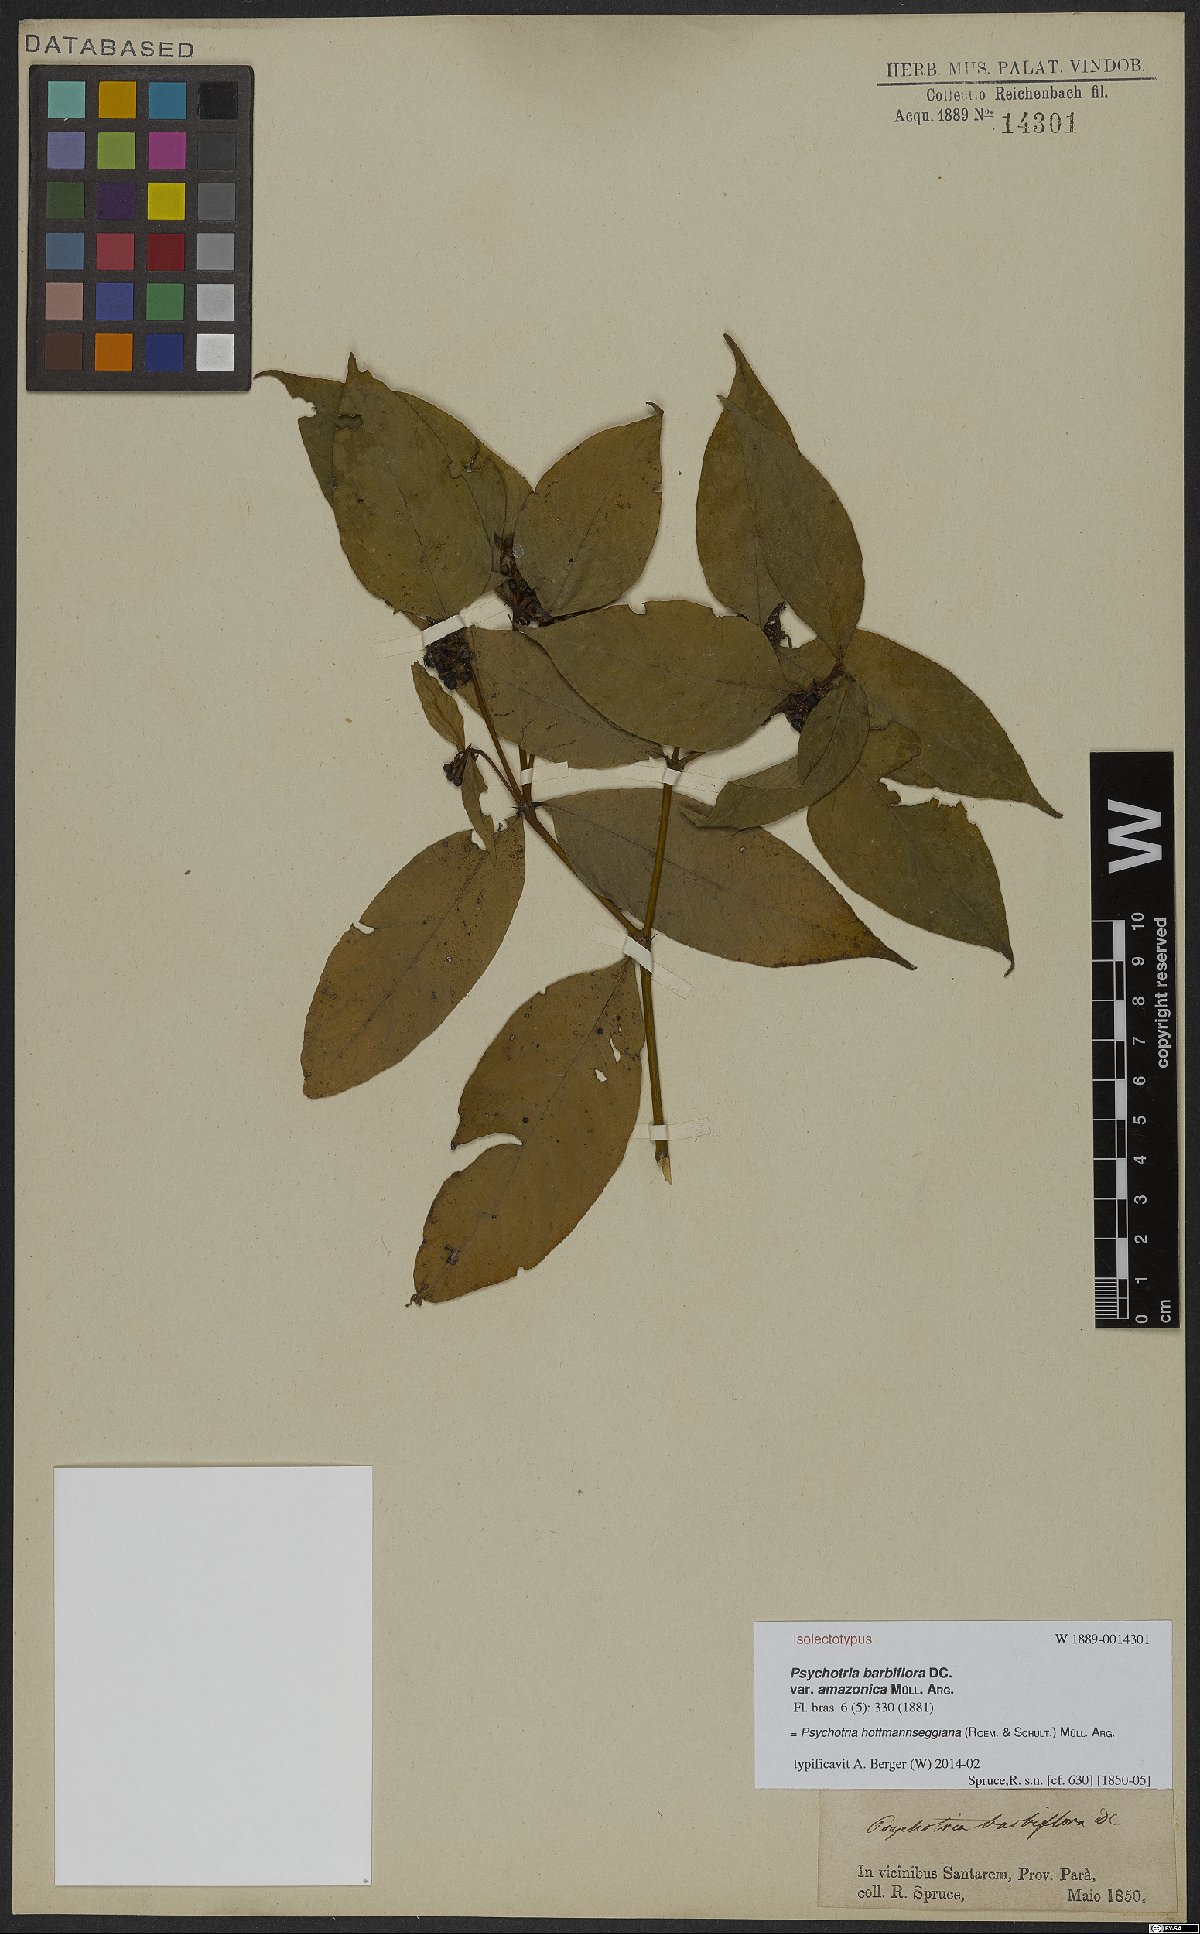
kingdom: Plantae
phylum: Tracheophyta
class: Magnoliopsida
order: Gentianales
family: Rubiaceae
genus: Palicourea
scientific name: Palicourea hoffmannseggiana
